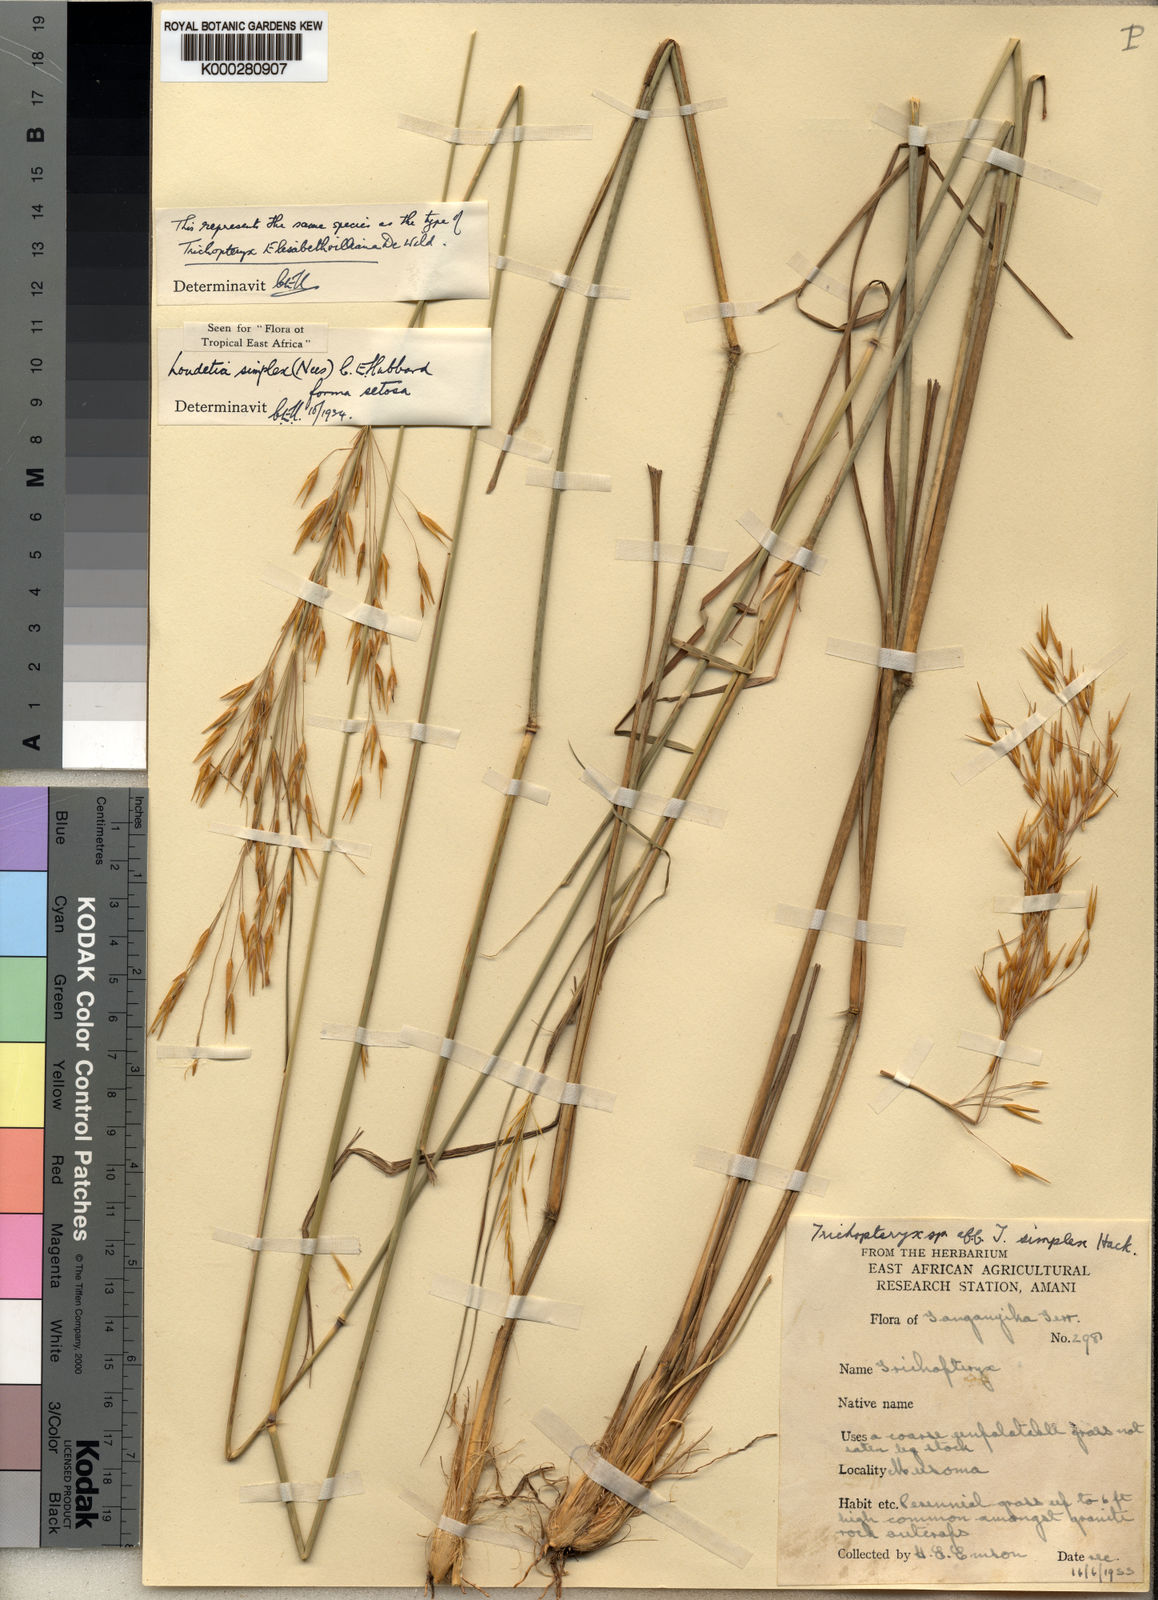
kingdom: Plantae
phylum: Tracheophyta
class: Liliopsida
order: Poales
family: Poaceae
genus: Loudetia
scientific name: Loudetia simplex
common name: Common russet grass
